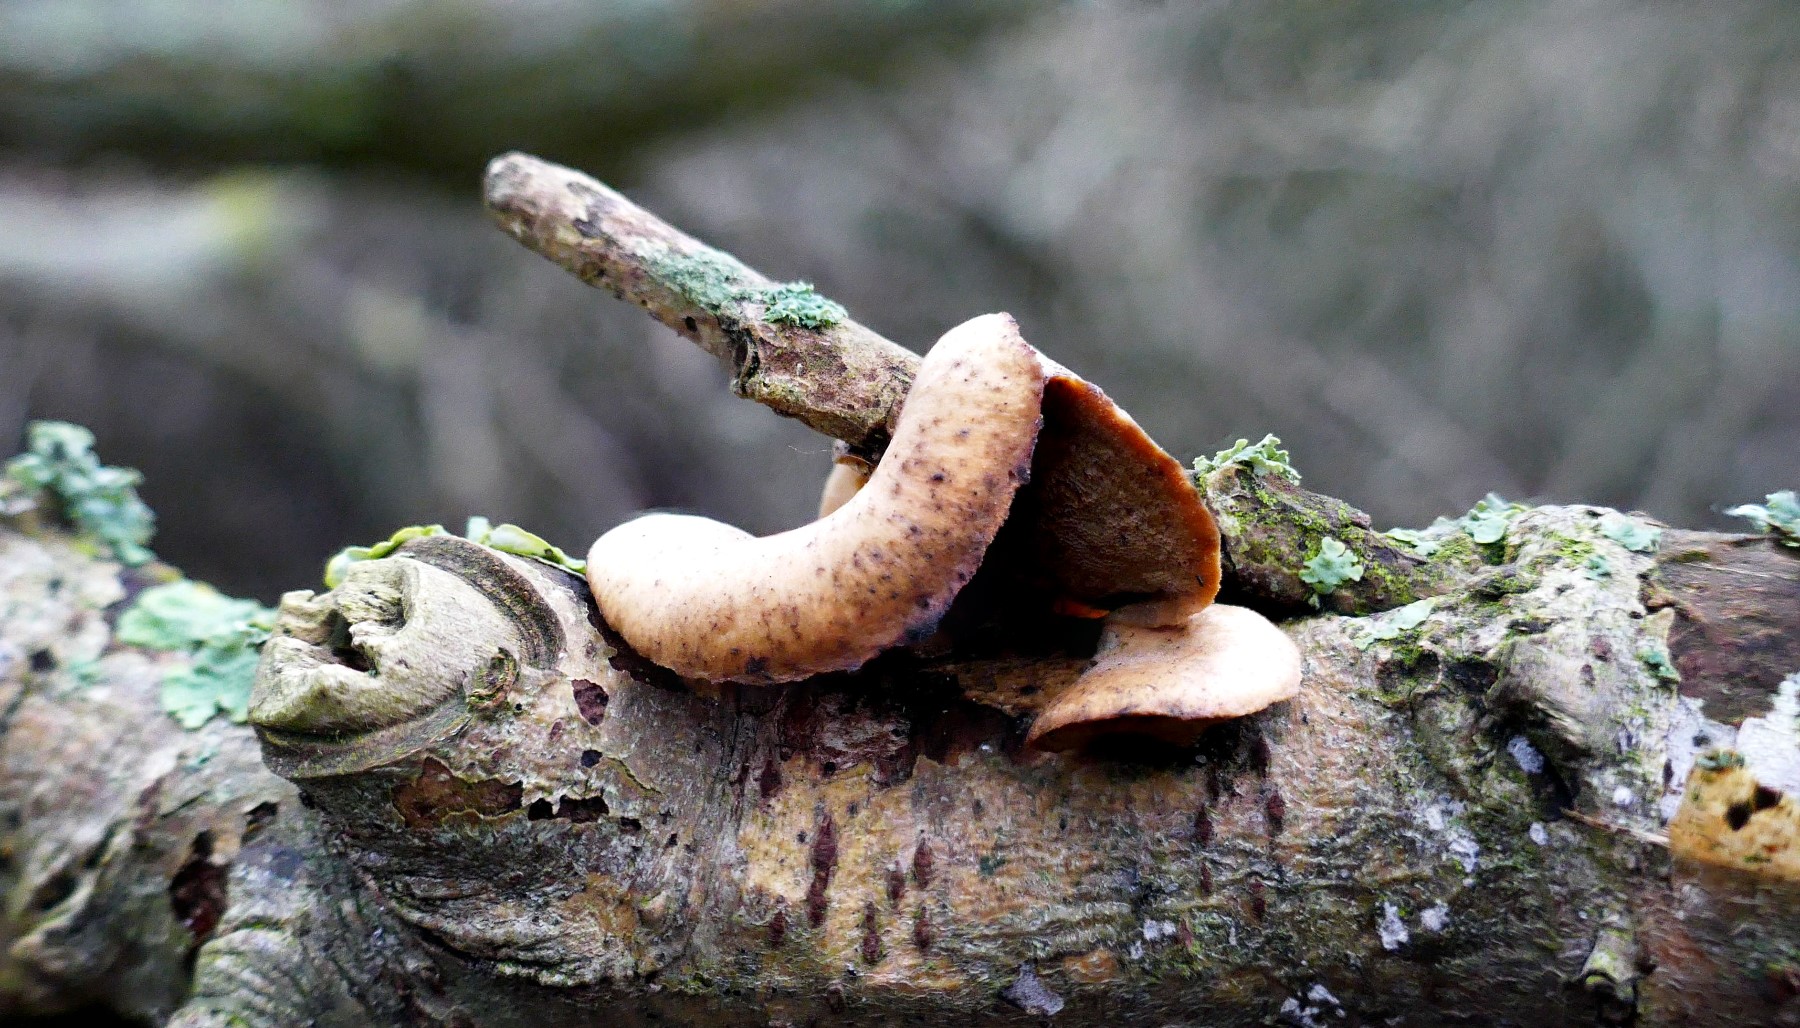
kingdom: Fungi
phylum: Basidiomycota
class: Agaricomycetes
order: Polyporales
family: Polyporaceae
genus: Cerioporus
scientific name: Cerioporus varius
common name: foranderlig stilkporesvamp
